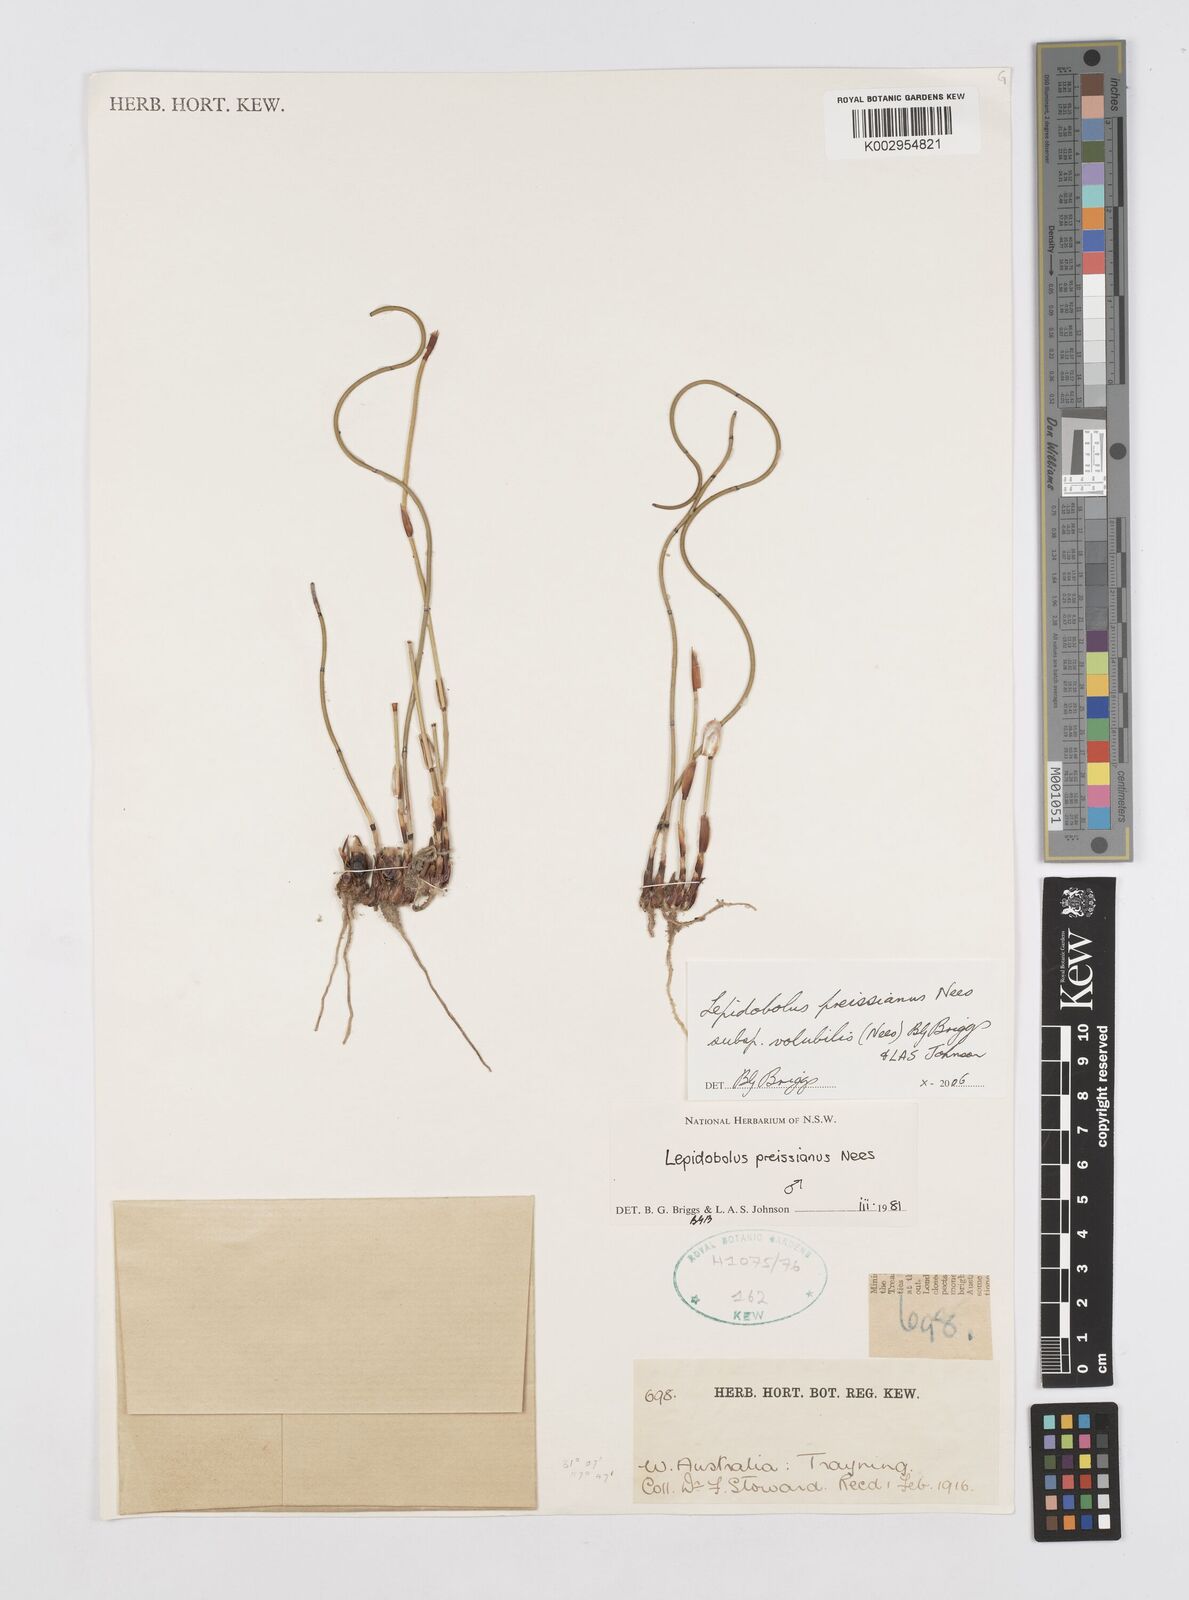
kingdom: Plantae
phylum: Tracheophyta
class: Liliopsida
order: Poales
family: Restionaceae
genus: Lepidobolus
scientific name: Lepidobolus preissianus
